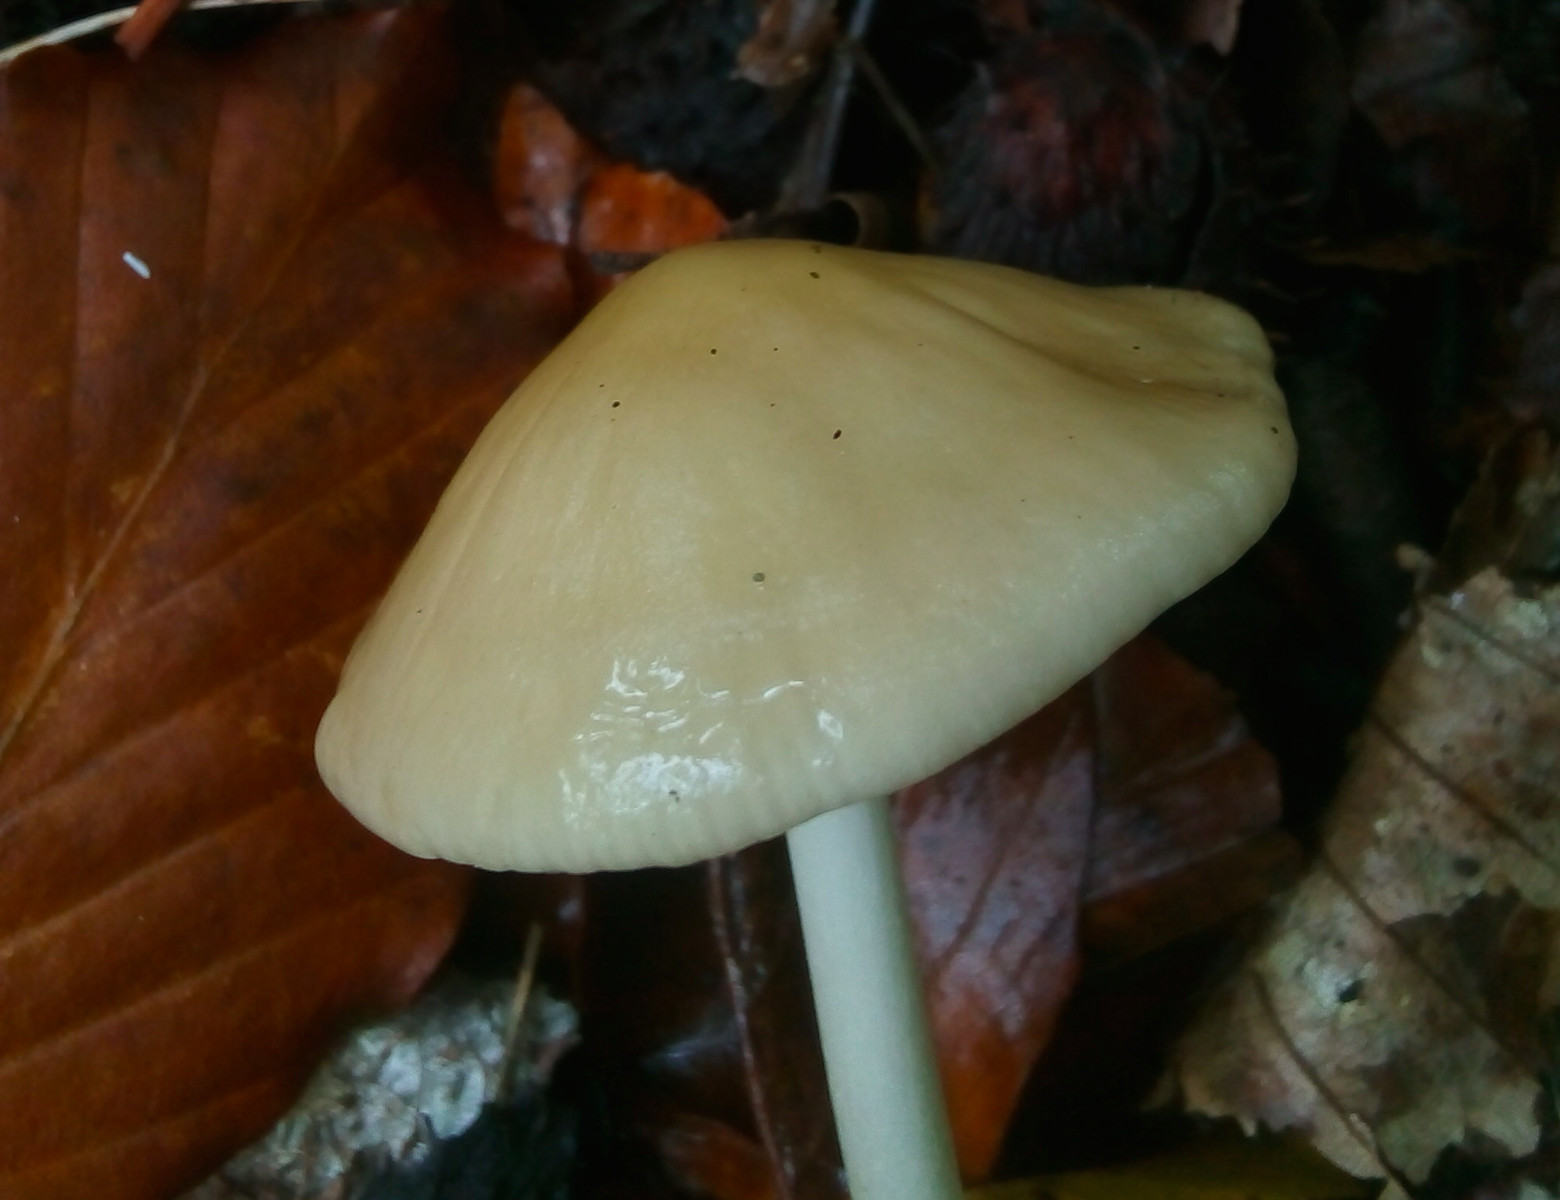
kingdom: Fungi
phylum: Basidiomycota
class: Agaricomycetes
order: Agaricales
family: Physalacriaceae
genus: Hymenopellis
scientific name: Hymenopellis radicata
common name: almindelig pælerodshat
